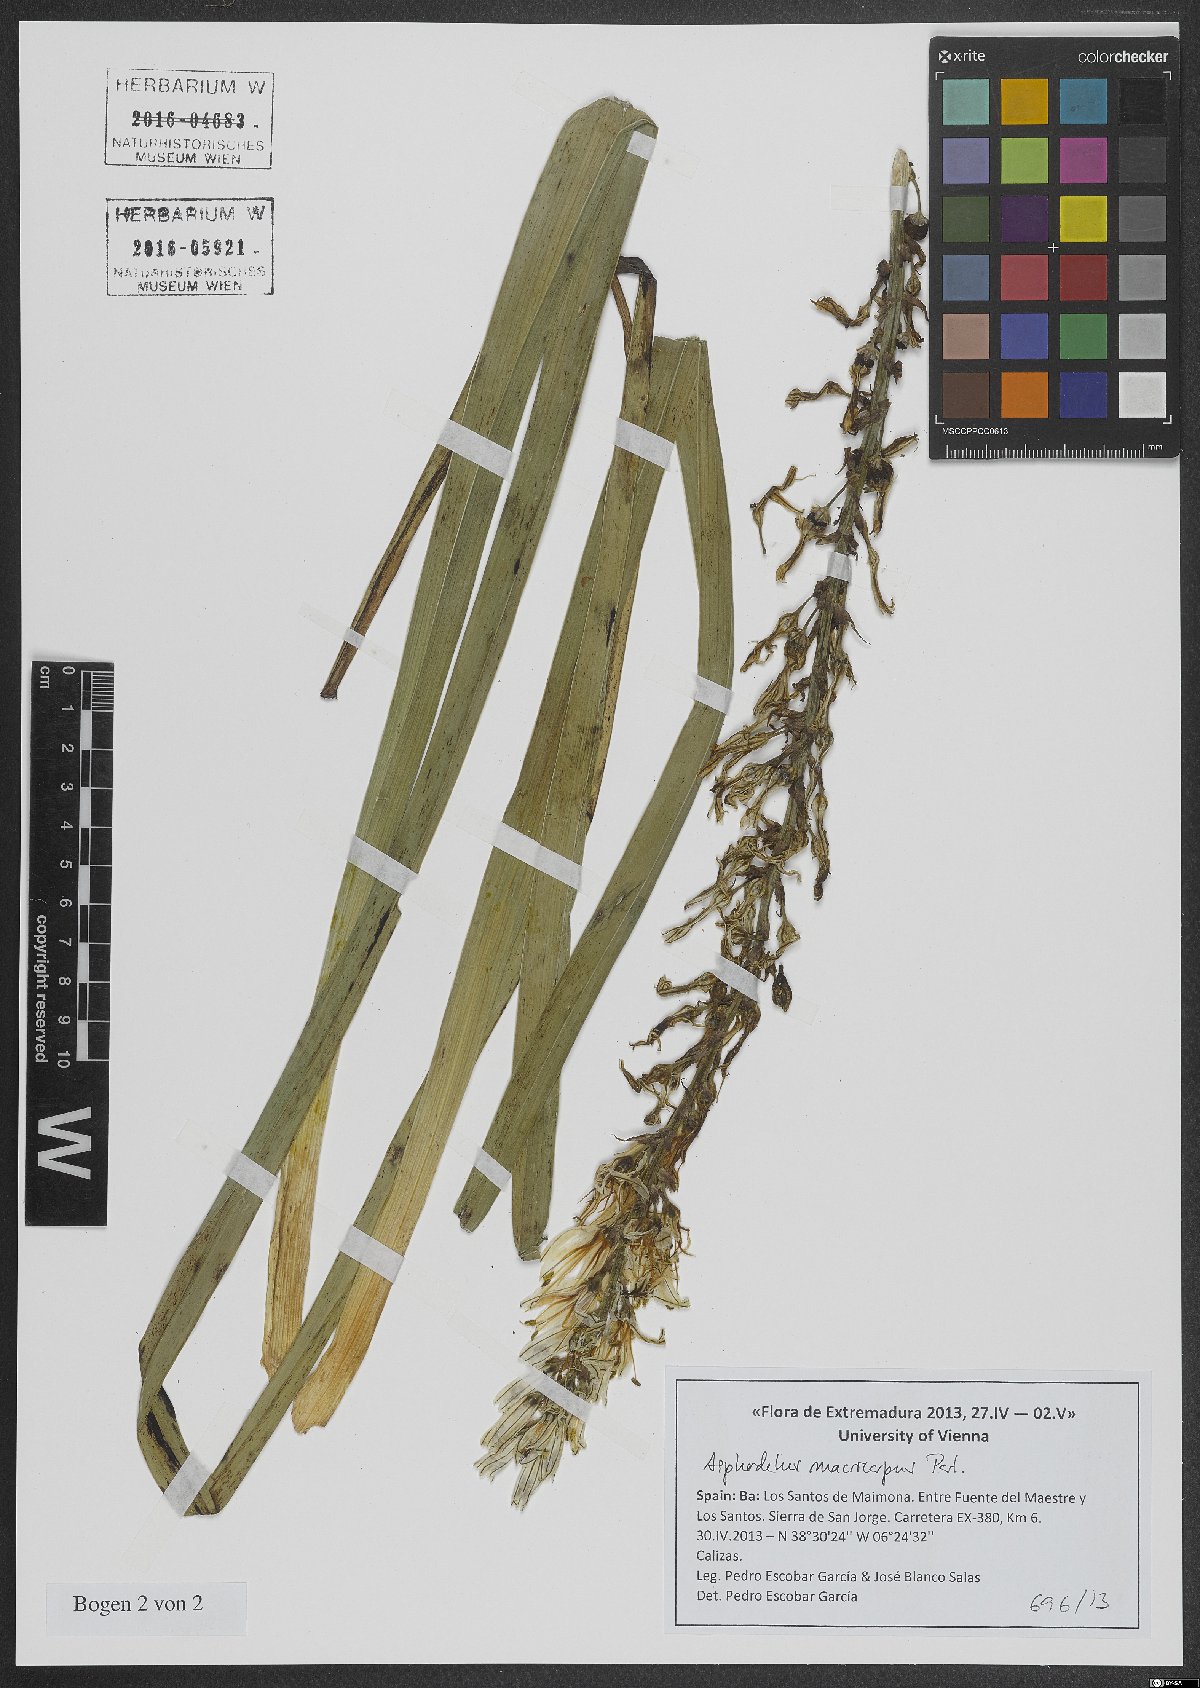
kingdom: Plantae
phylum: Tracheophyta
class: Liliopsida
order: Asparagales
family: Asphodelaceae
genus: Asphodelus
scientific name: Asphodelus macrocarpus
